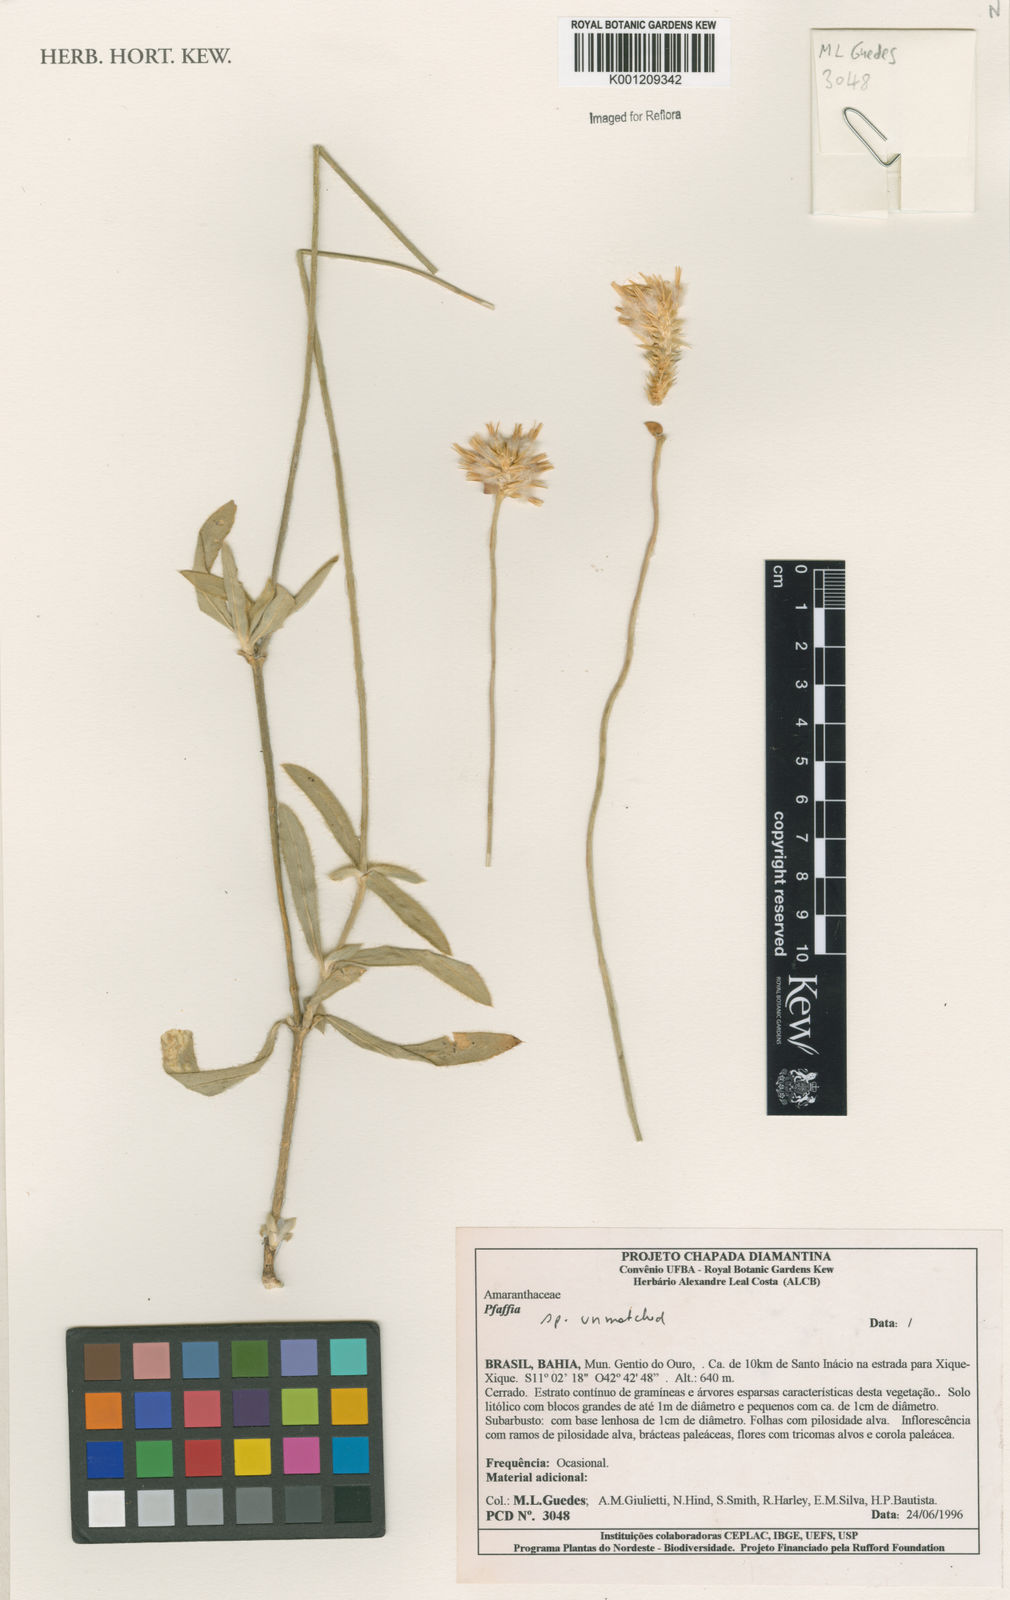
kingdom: Plantae
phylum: Tracheophyta
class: Magnoliopsida
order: Caryophyllales
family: Amaranthaceae
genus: Pfaffia
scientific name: Pfaffia
